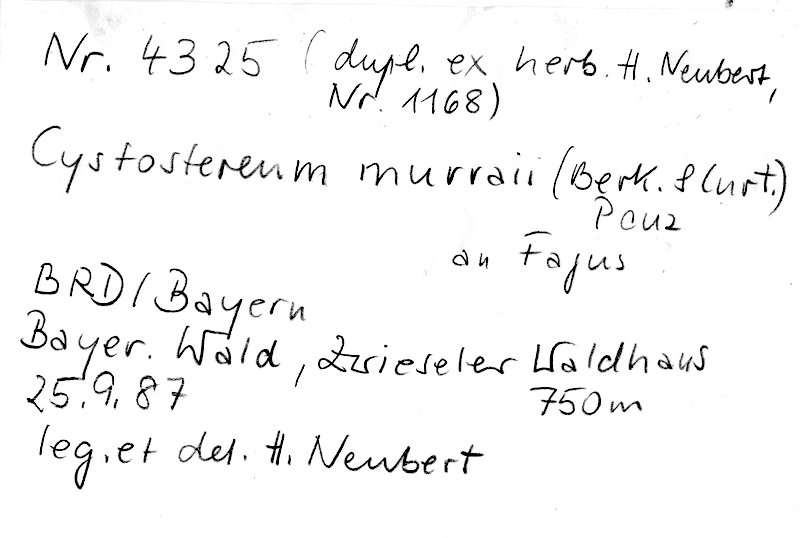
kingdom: Plantae
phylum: Tracheophyta
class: Magnoliopsida
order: Fagales
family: Fagaceae
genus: Fagus
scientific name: Fagus sylvatica
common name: Beech
